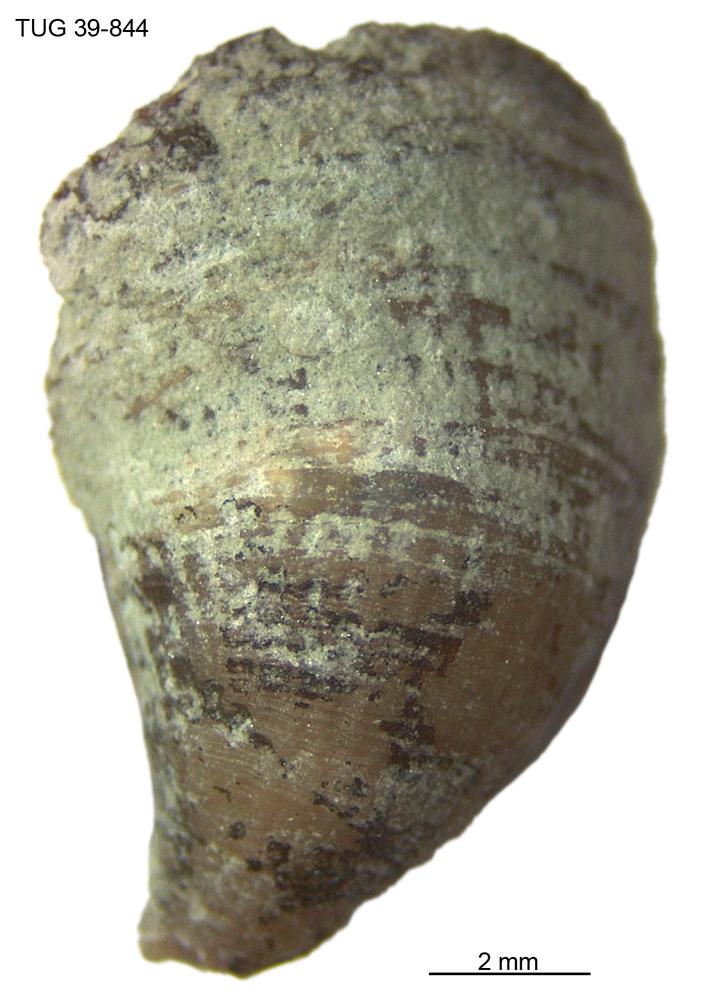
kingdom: Animalia
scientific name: Animalia
